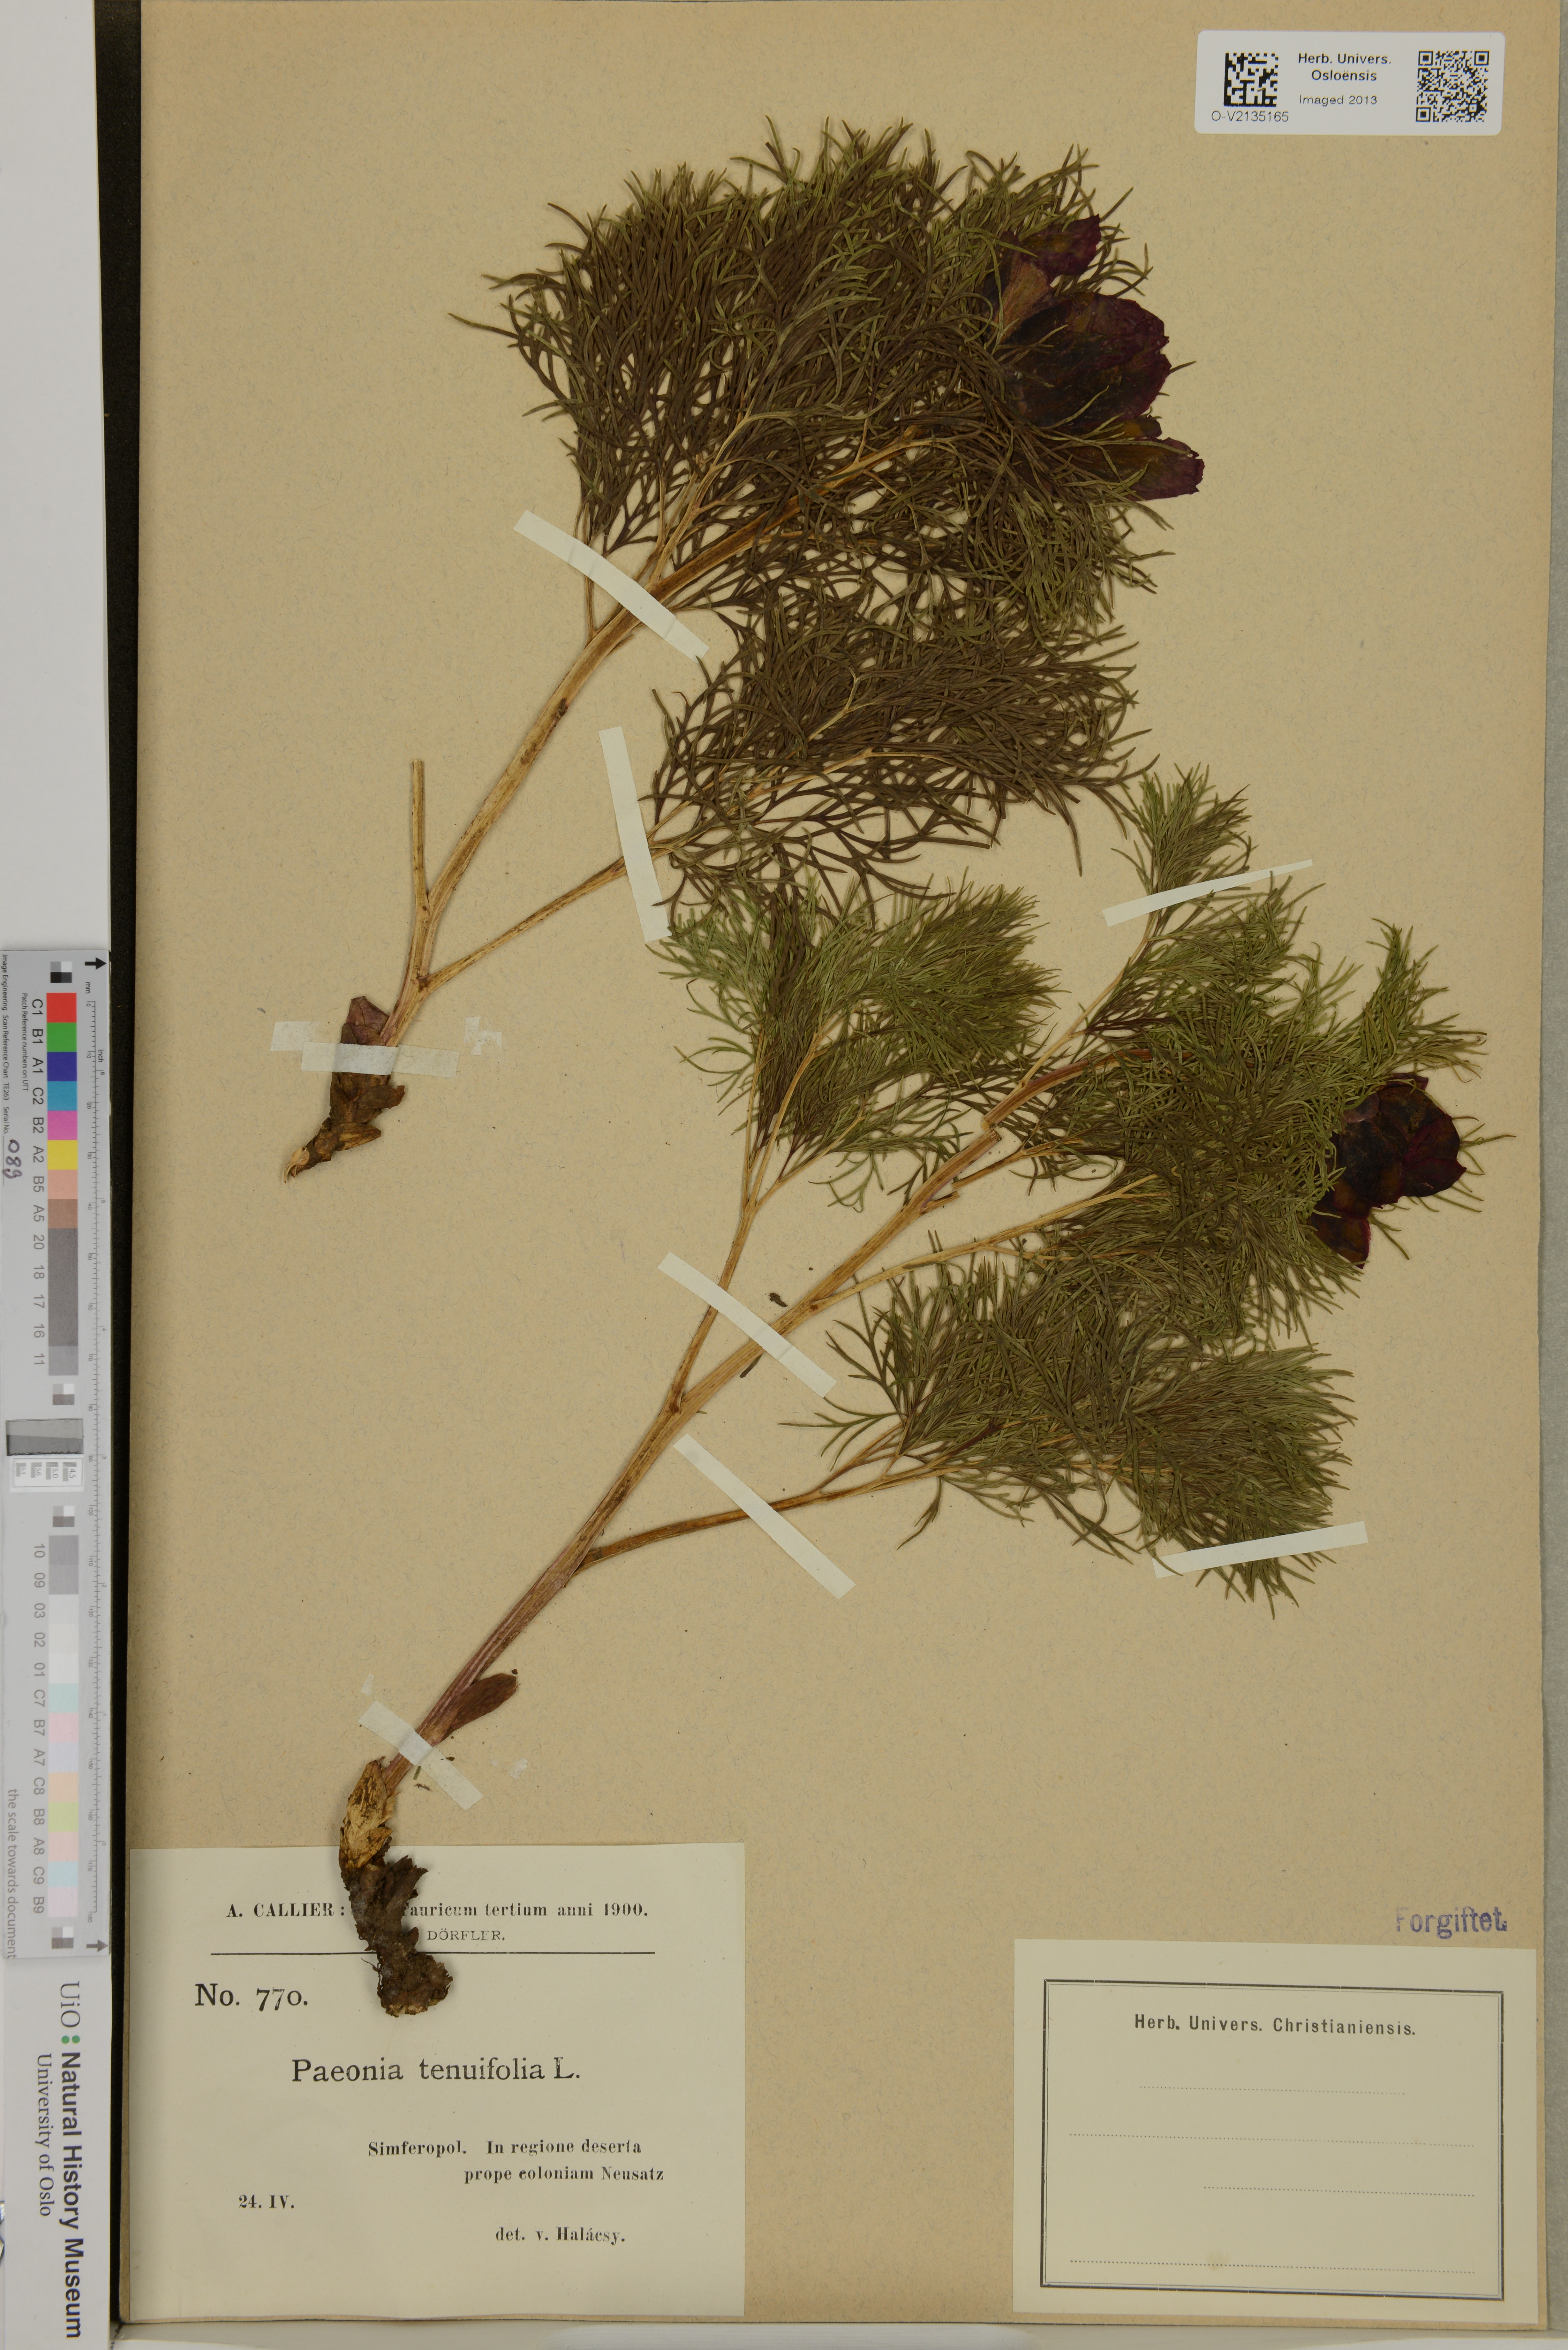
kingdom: Plantae
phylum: Tracheophyta
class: Magnoliopsida
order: Saxifragales
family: Paeoniaceae
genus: Paeonia
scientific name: Paeonia tenuifolia
